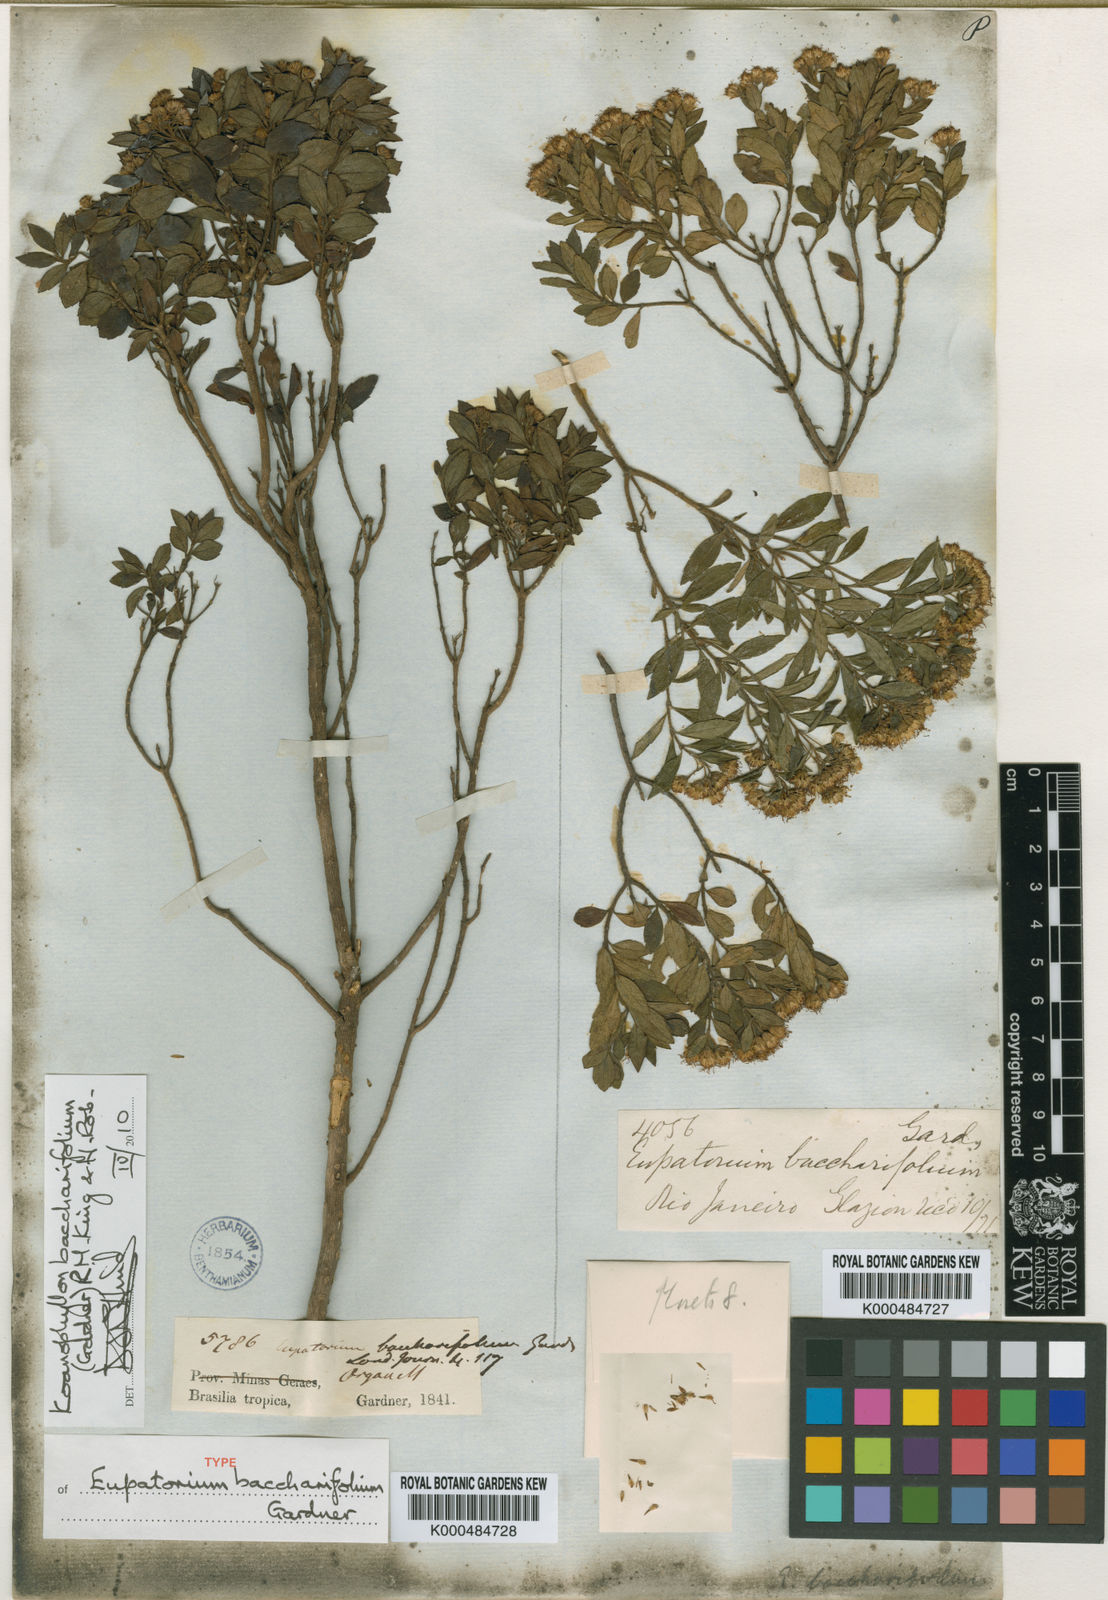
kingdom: Plantae
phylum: Tracheophyta
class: Magnoliopsida
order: Asterales
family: Asteraceae
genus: Koanophyllon
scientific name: Koanophyllon baccharifolium
